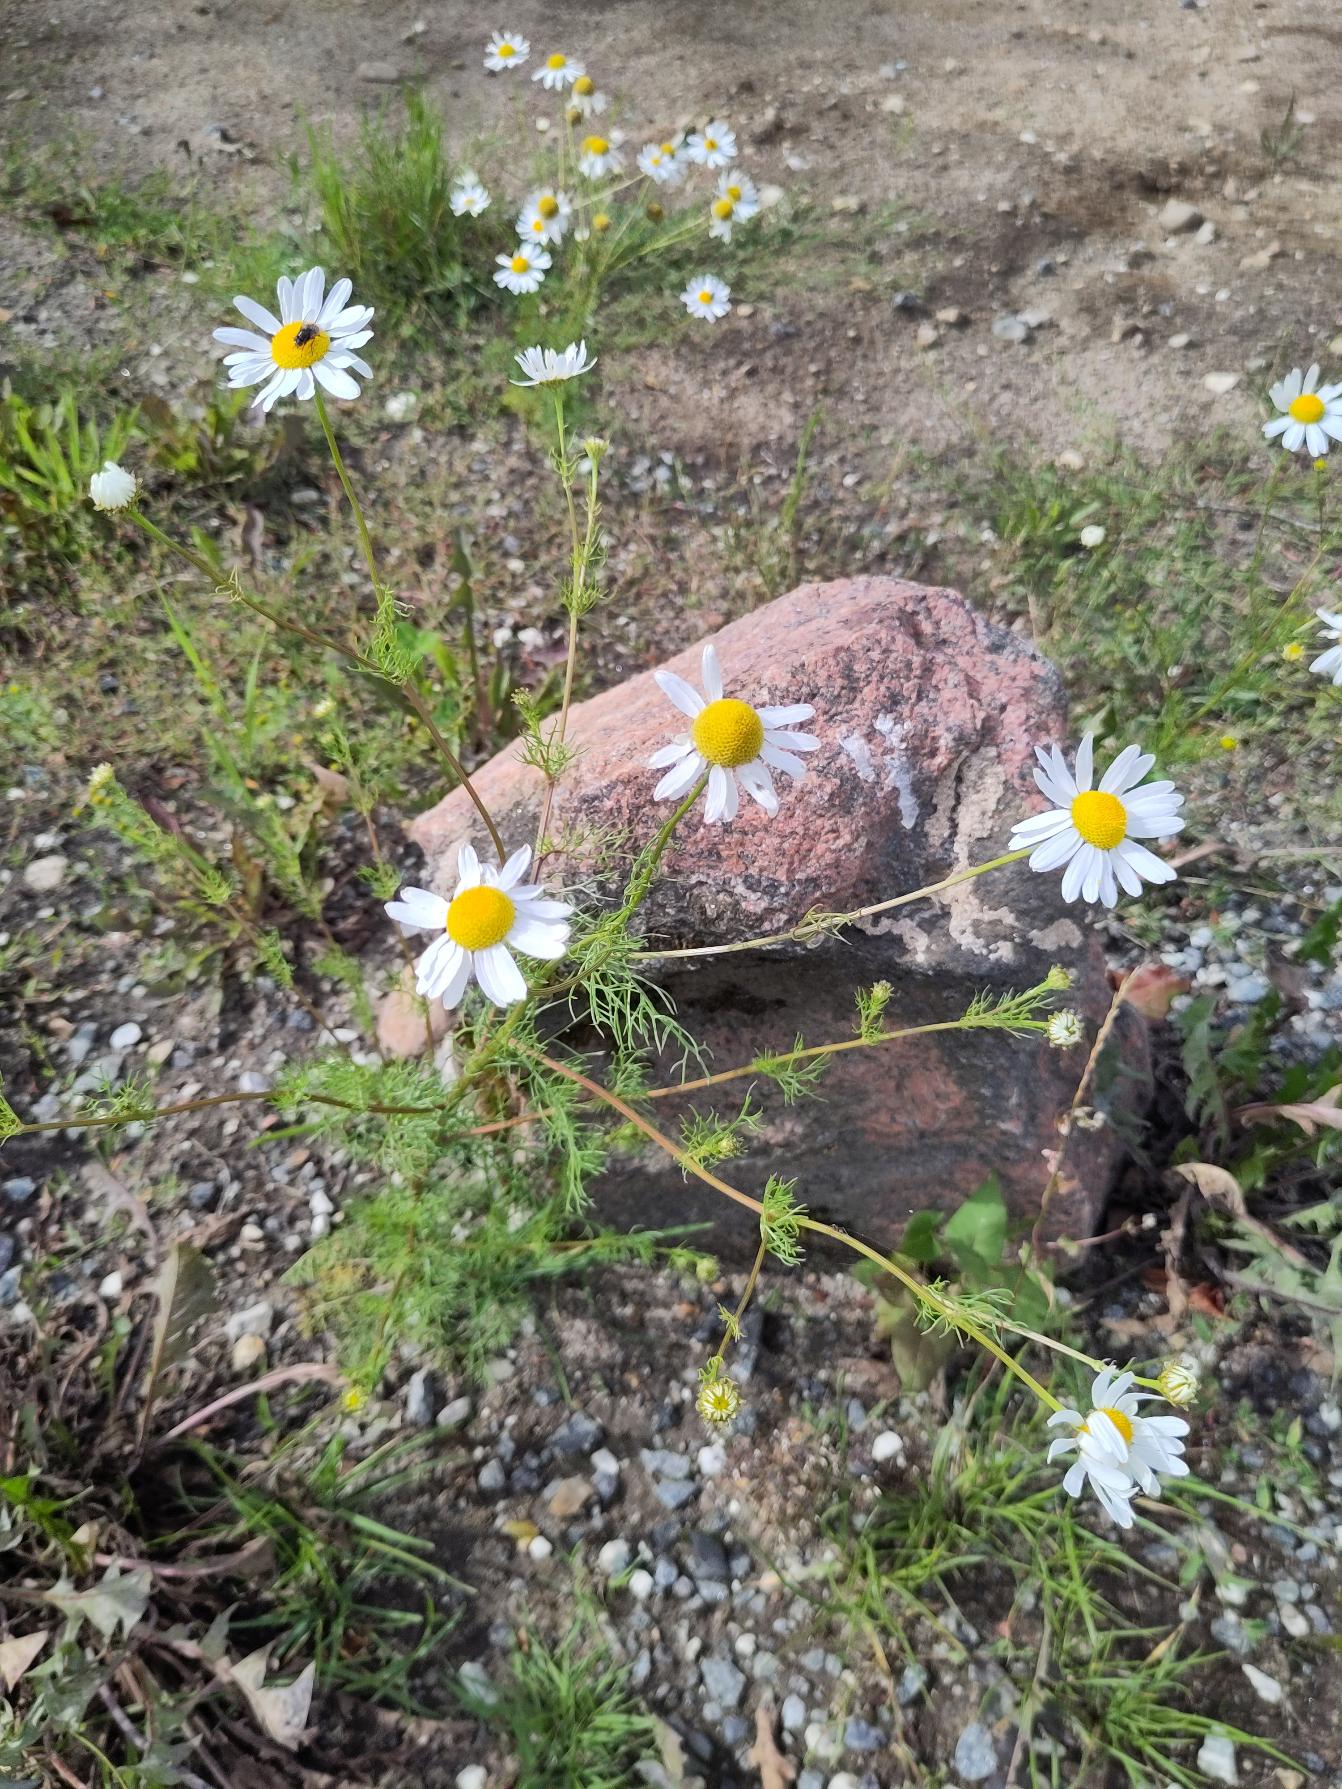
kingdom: Plantae
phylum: Tracheophyta
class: Magnoliopsida
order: Asterales
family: Asteraceae
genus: Tripleurospermum
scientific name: Tripleurospermum inodorum
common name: Lugtløs kamille
